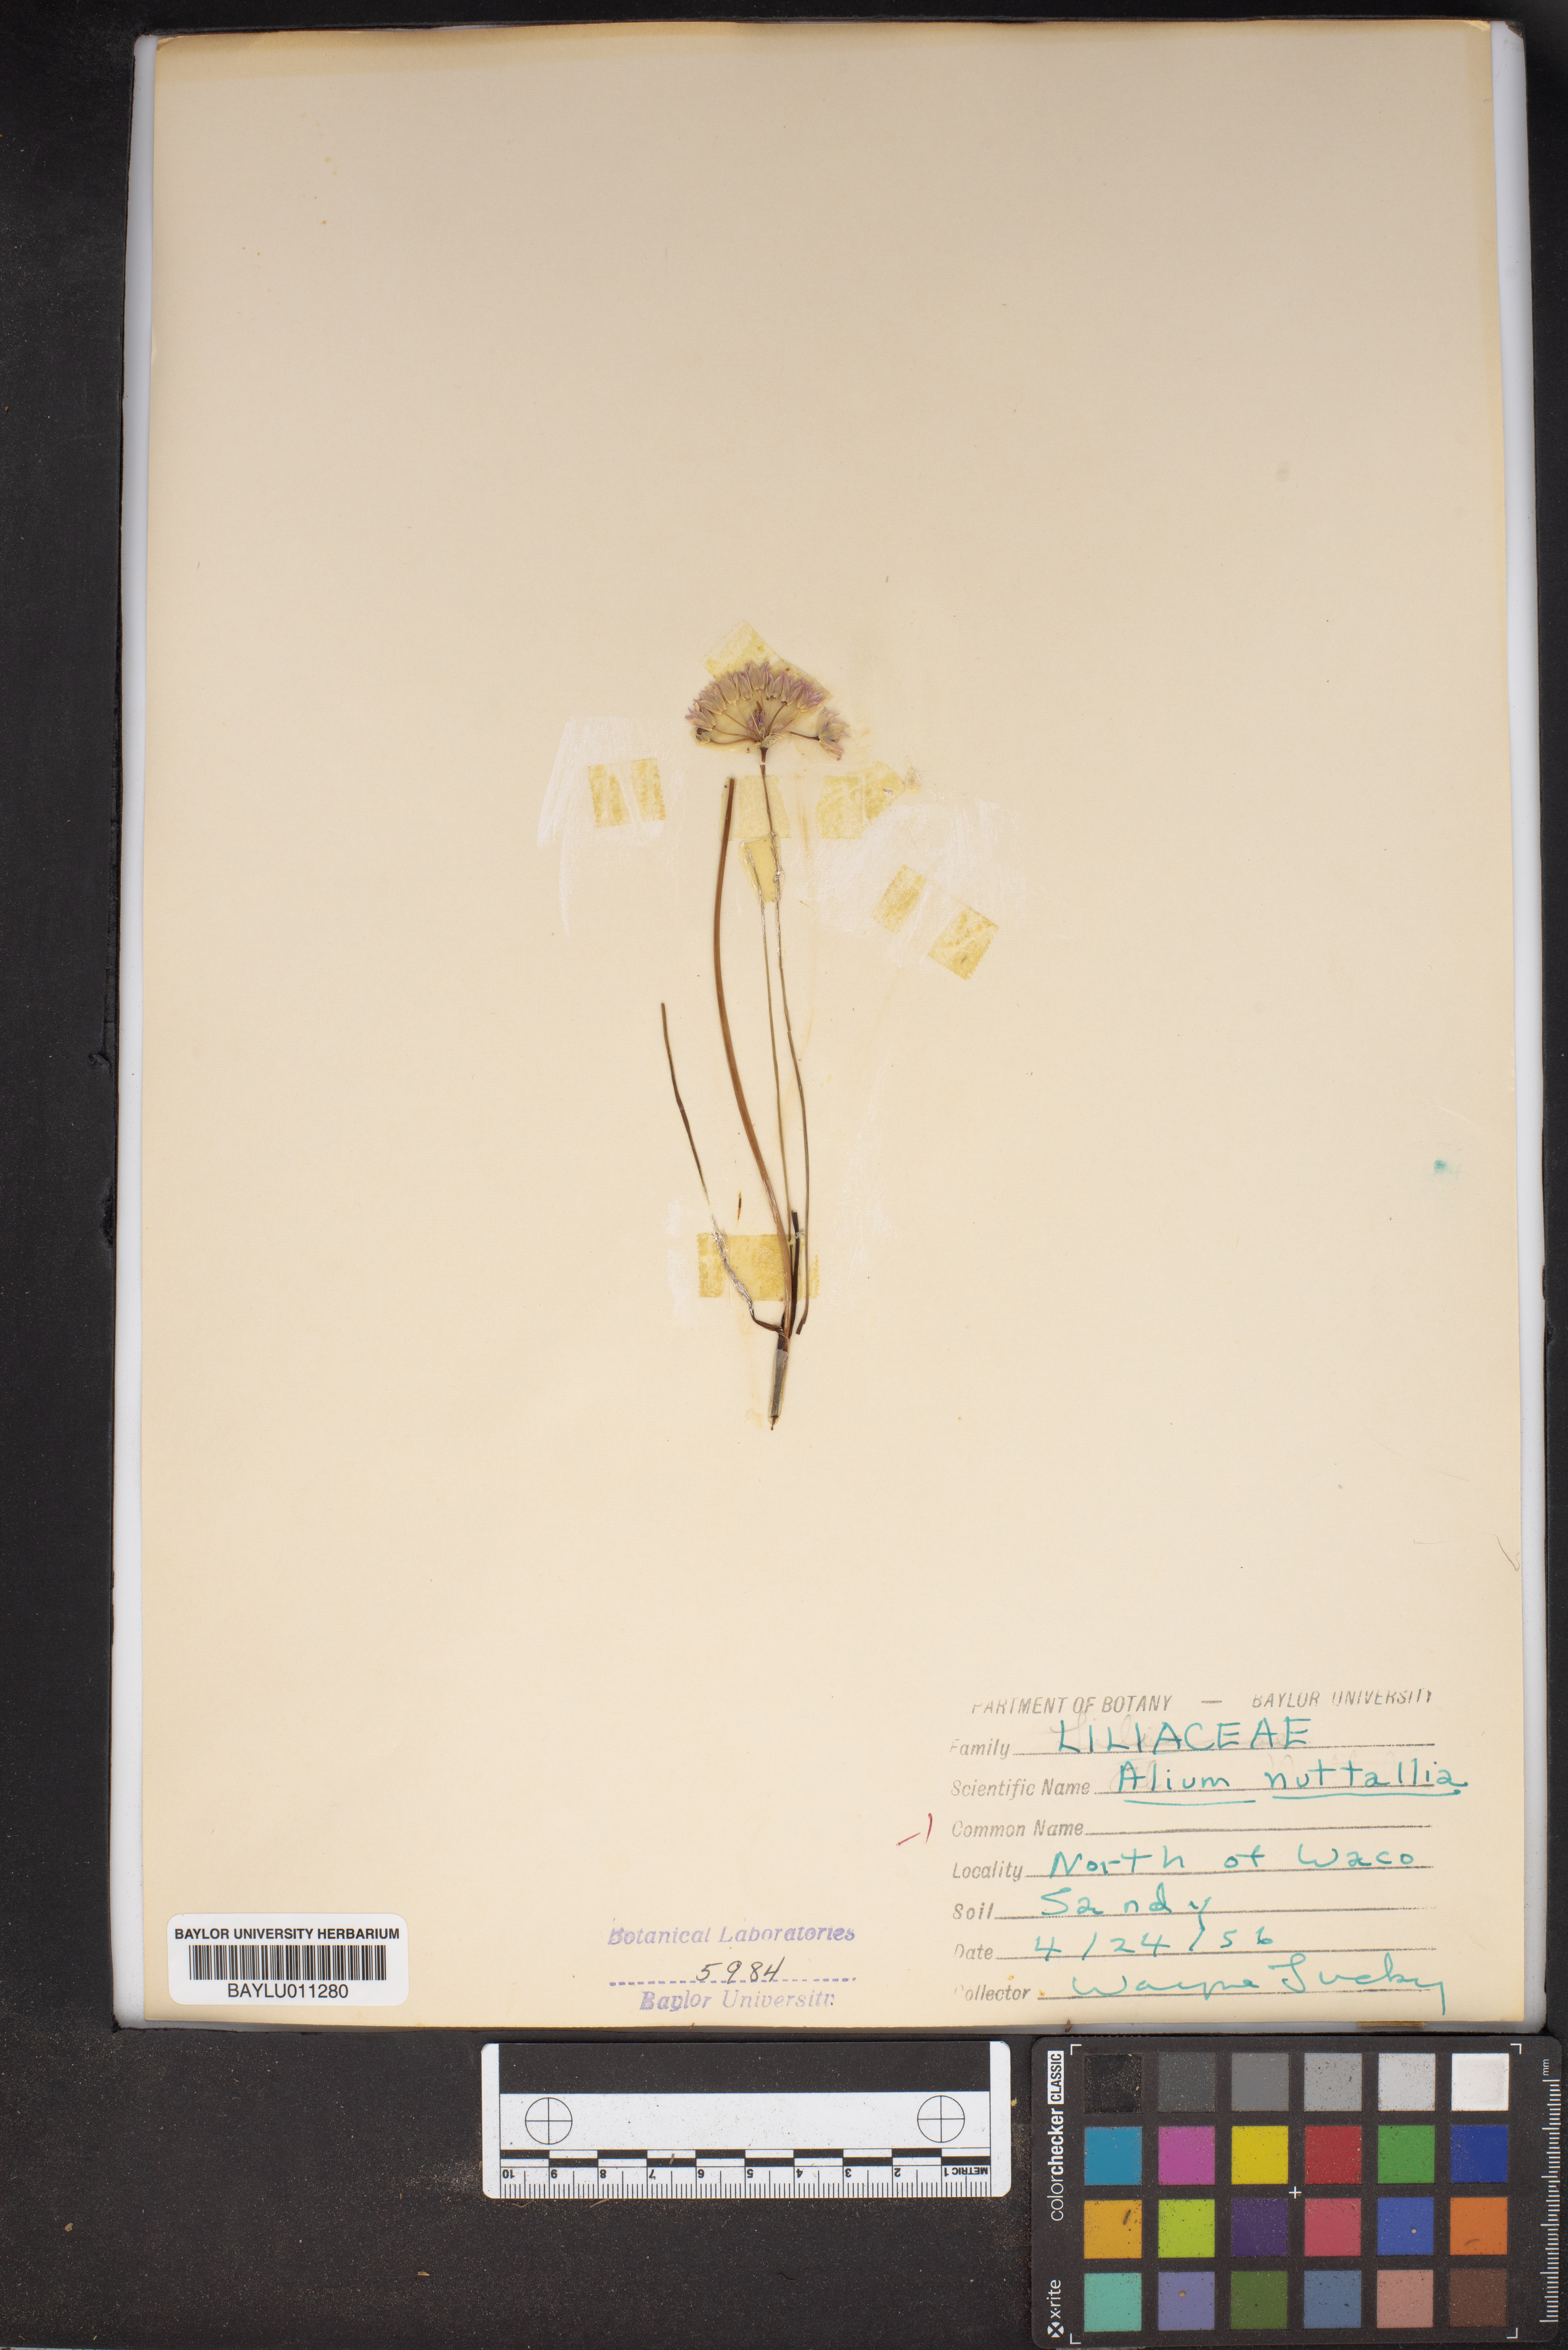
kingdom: Plantae
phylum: Tracheophyta
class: Liliopsida
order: Asparagales
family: Amaryllidaceae
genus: Allium
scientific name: Allium drummondii
